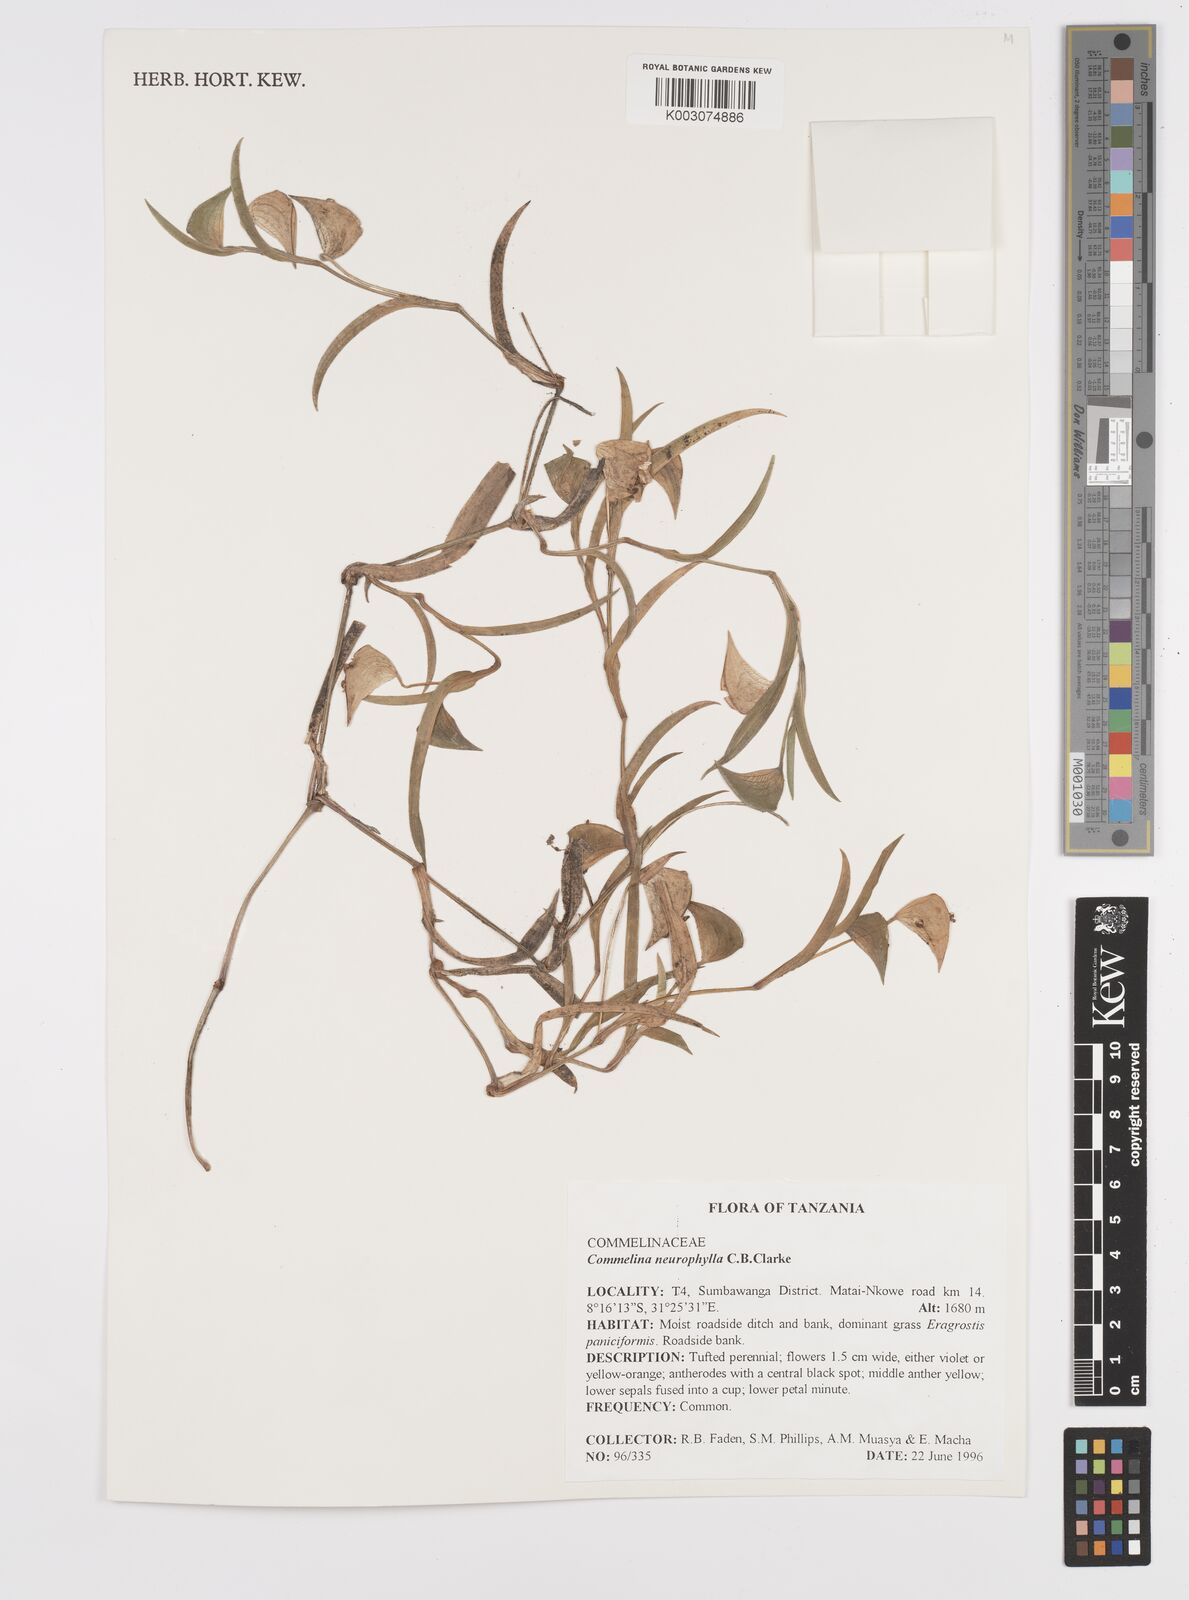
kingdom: Plantae
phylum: Tracheophyta
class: Liliopsida
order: Commelinales
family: Commelinaceae
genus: Commelina
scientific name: Commelina neurophylla
